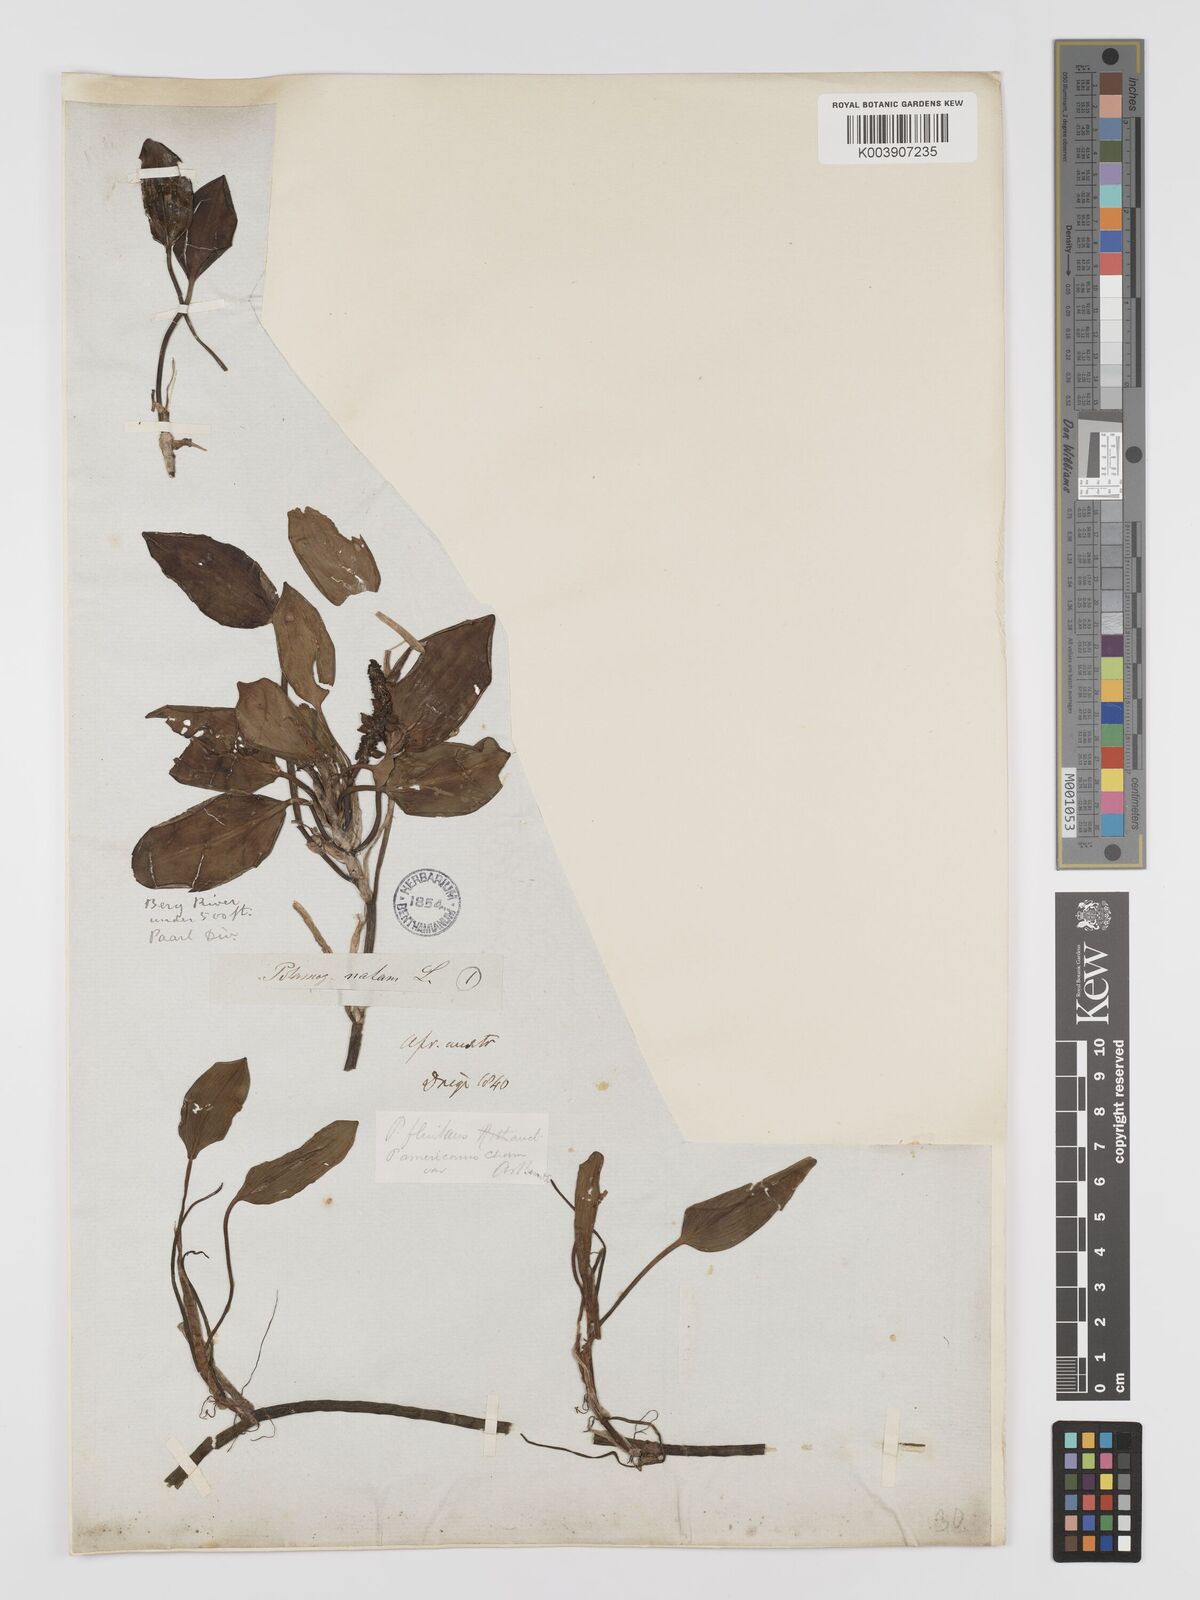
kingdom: Plantae
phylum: Tracheophyta
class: Liliopsida
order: Alismatales
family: Potamogetonaceae
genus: Potamogeton
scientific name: Potamogeton nodosus
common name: Loddon pondweed
